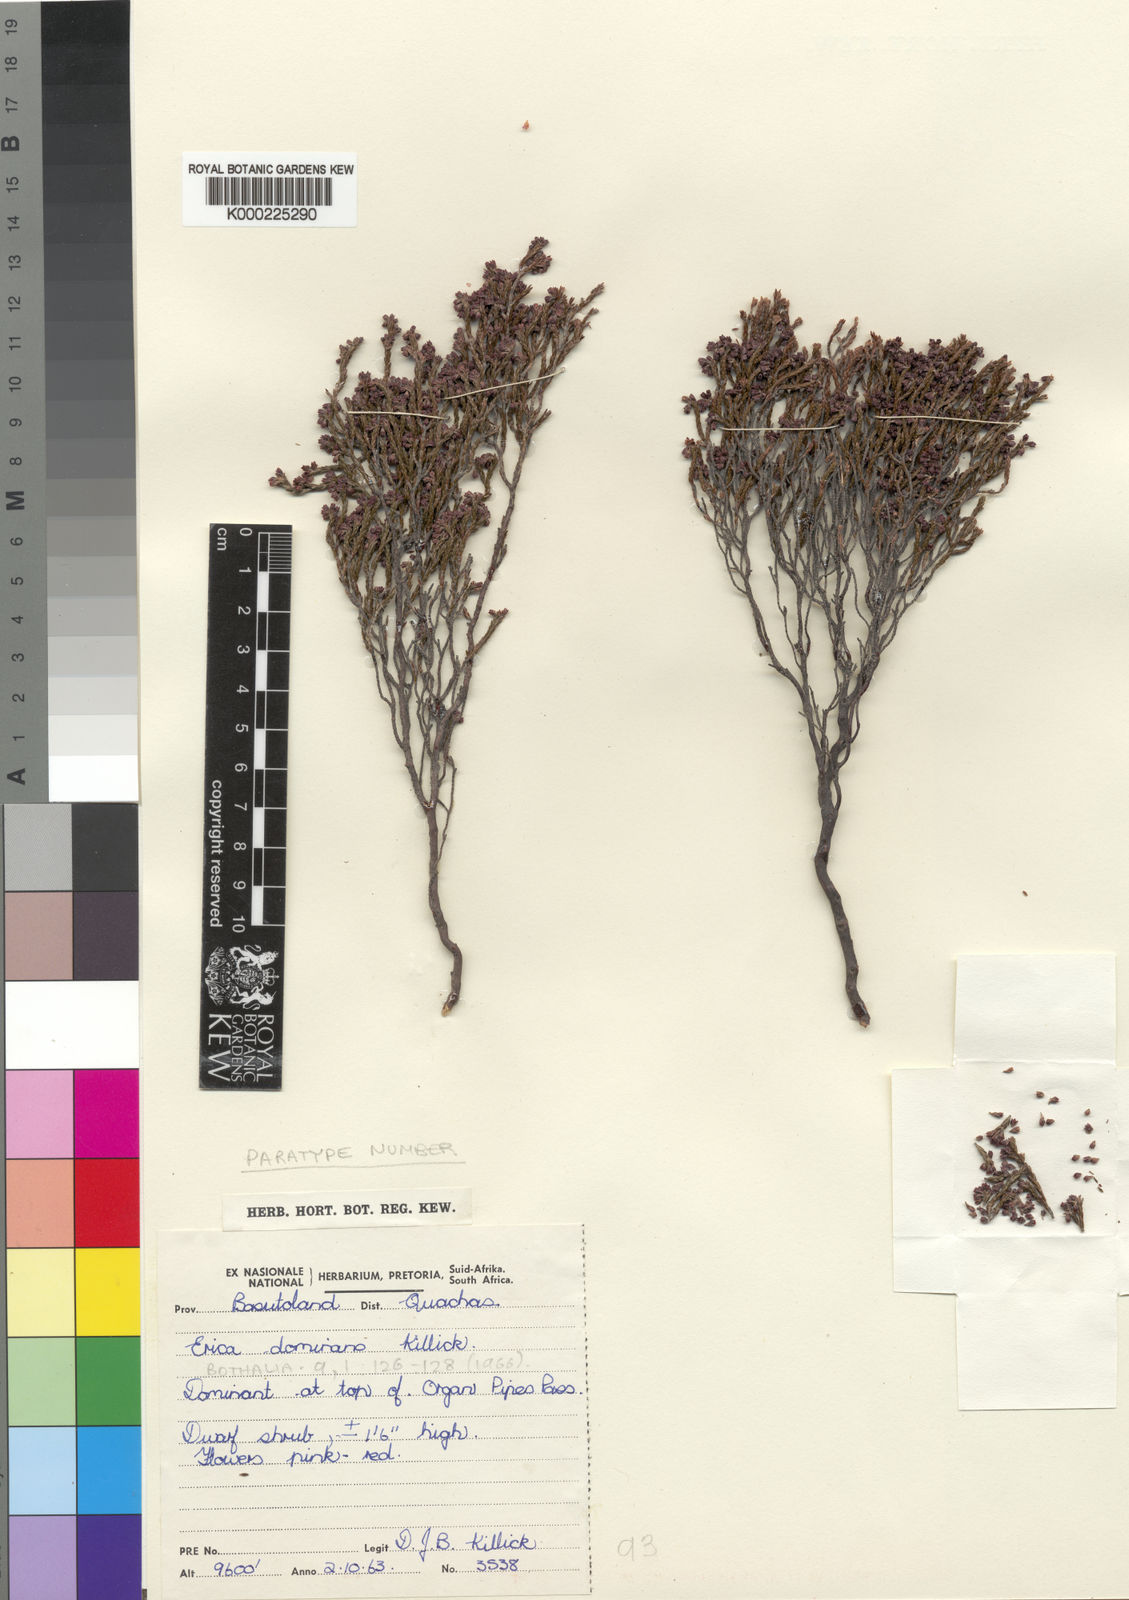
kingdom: Plantae
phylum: Tracheophyta
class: Magnoliopsida
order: Ericales
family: Ericaceae
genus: Erica
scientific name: Erica dominans
